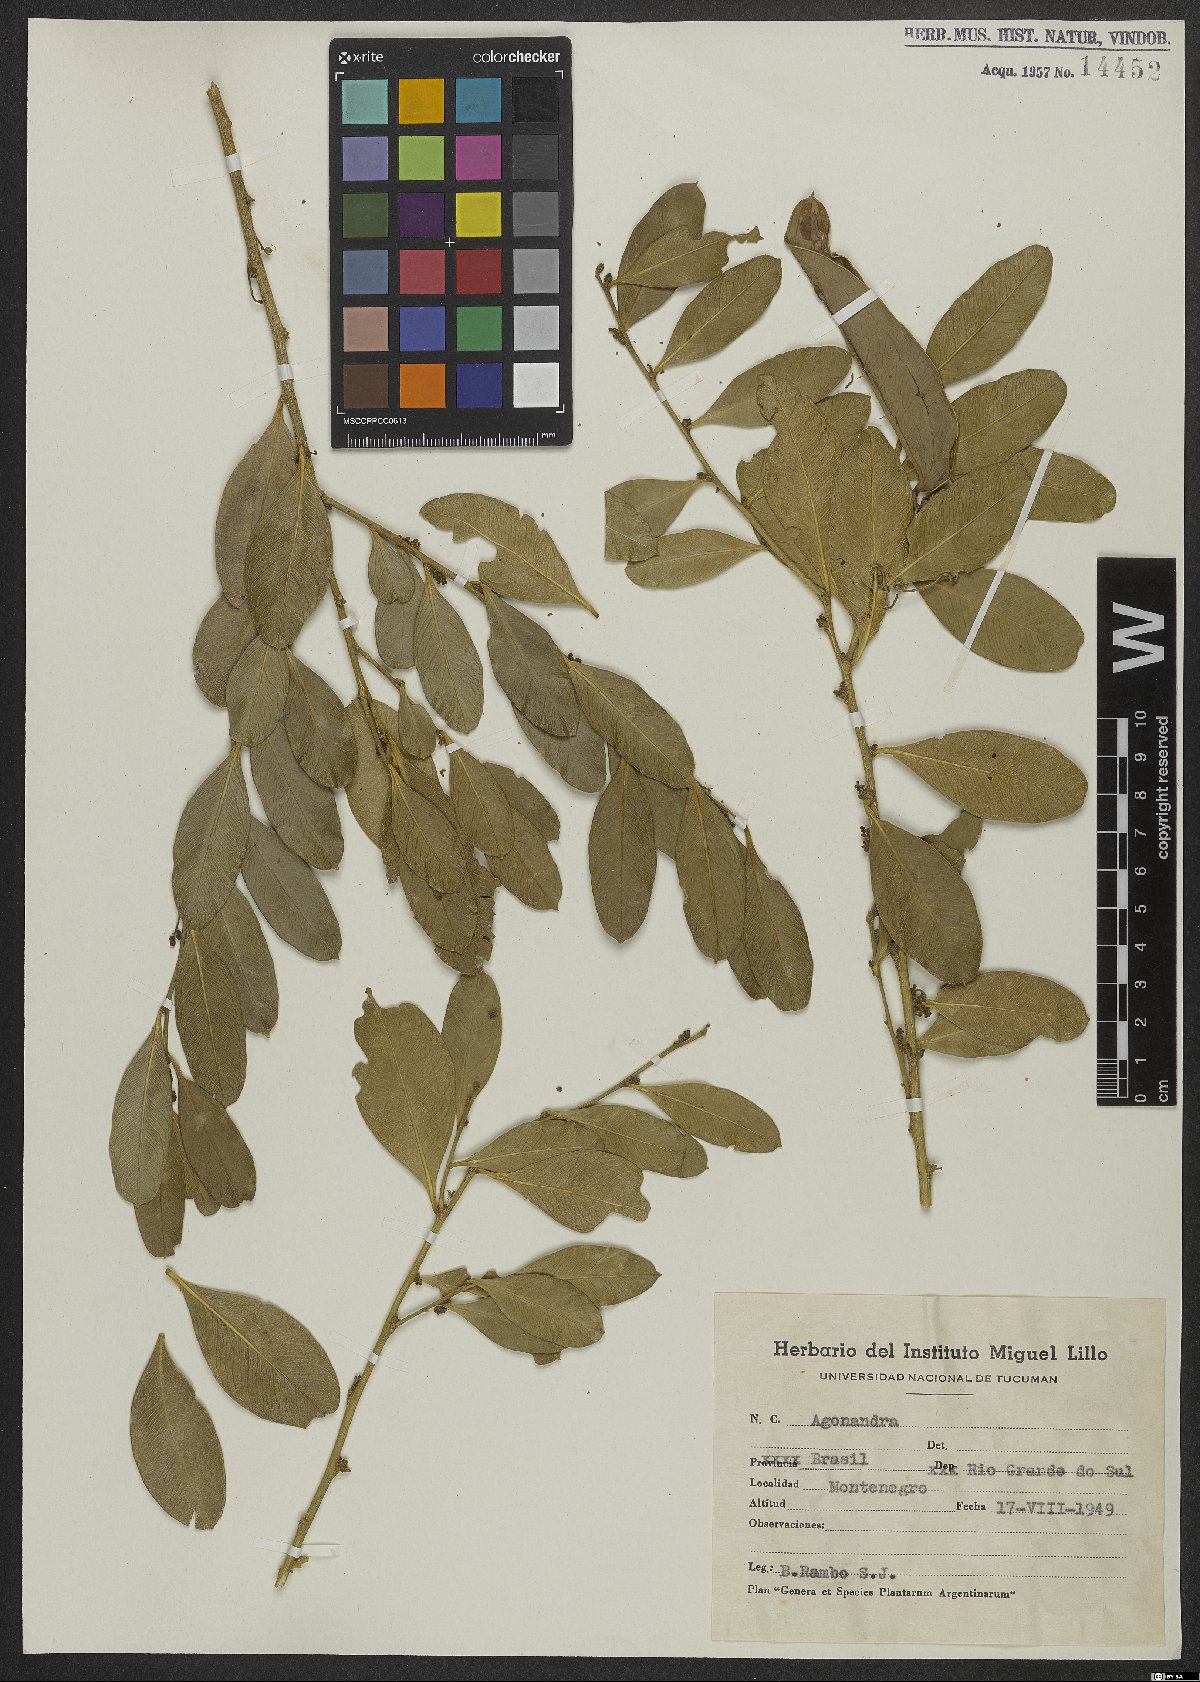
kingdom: Plantae
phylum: Tracheophyta
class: Magnoliopsida
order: Santalales
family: Opiliaceae
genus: Agonandra
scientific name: Agonandra excelsa
